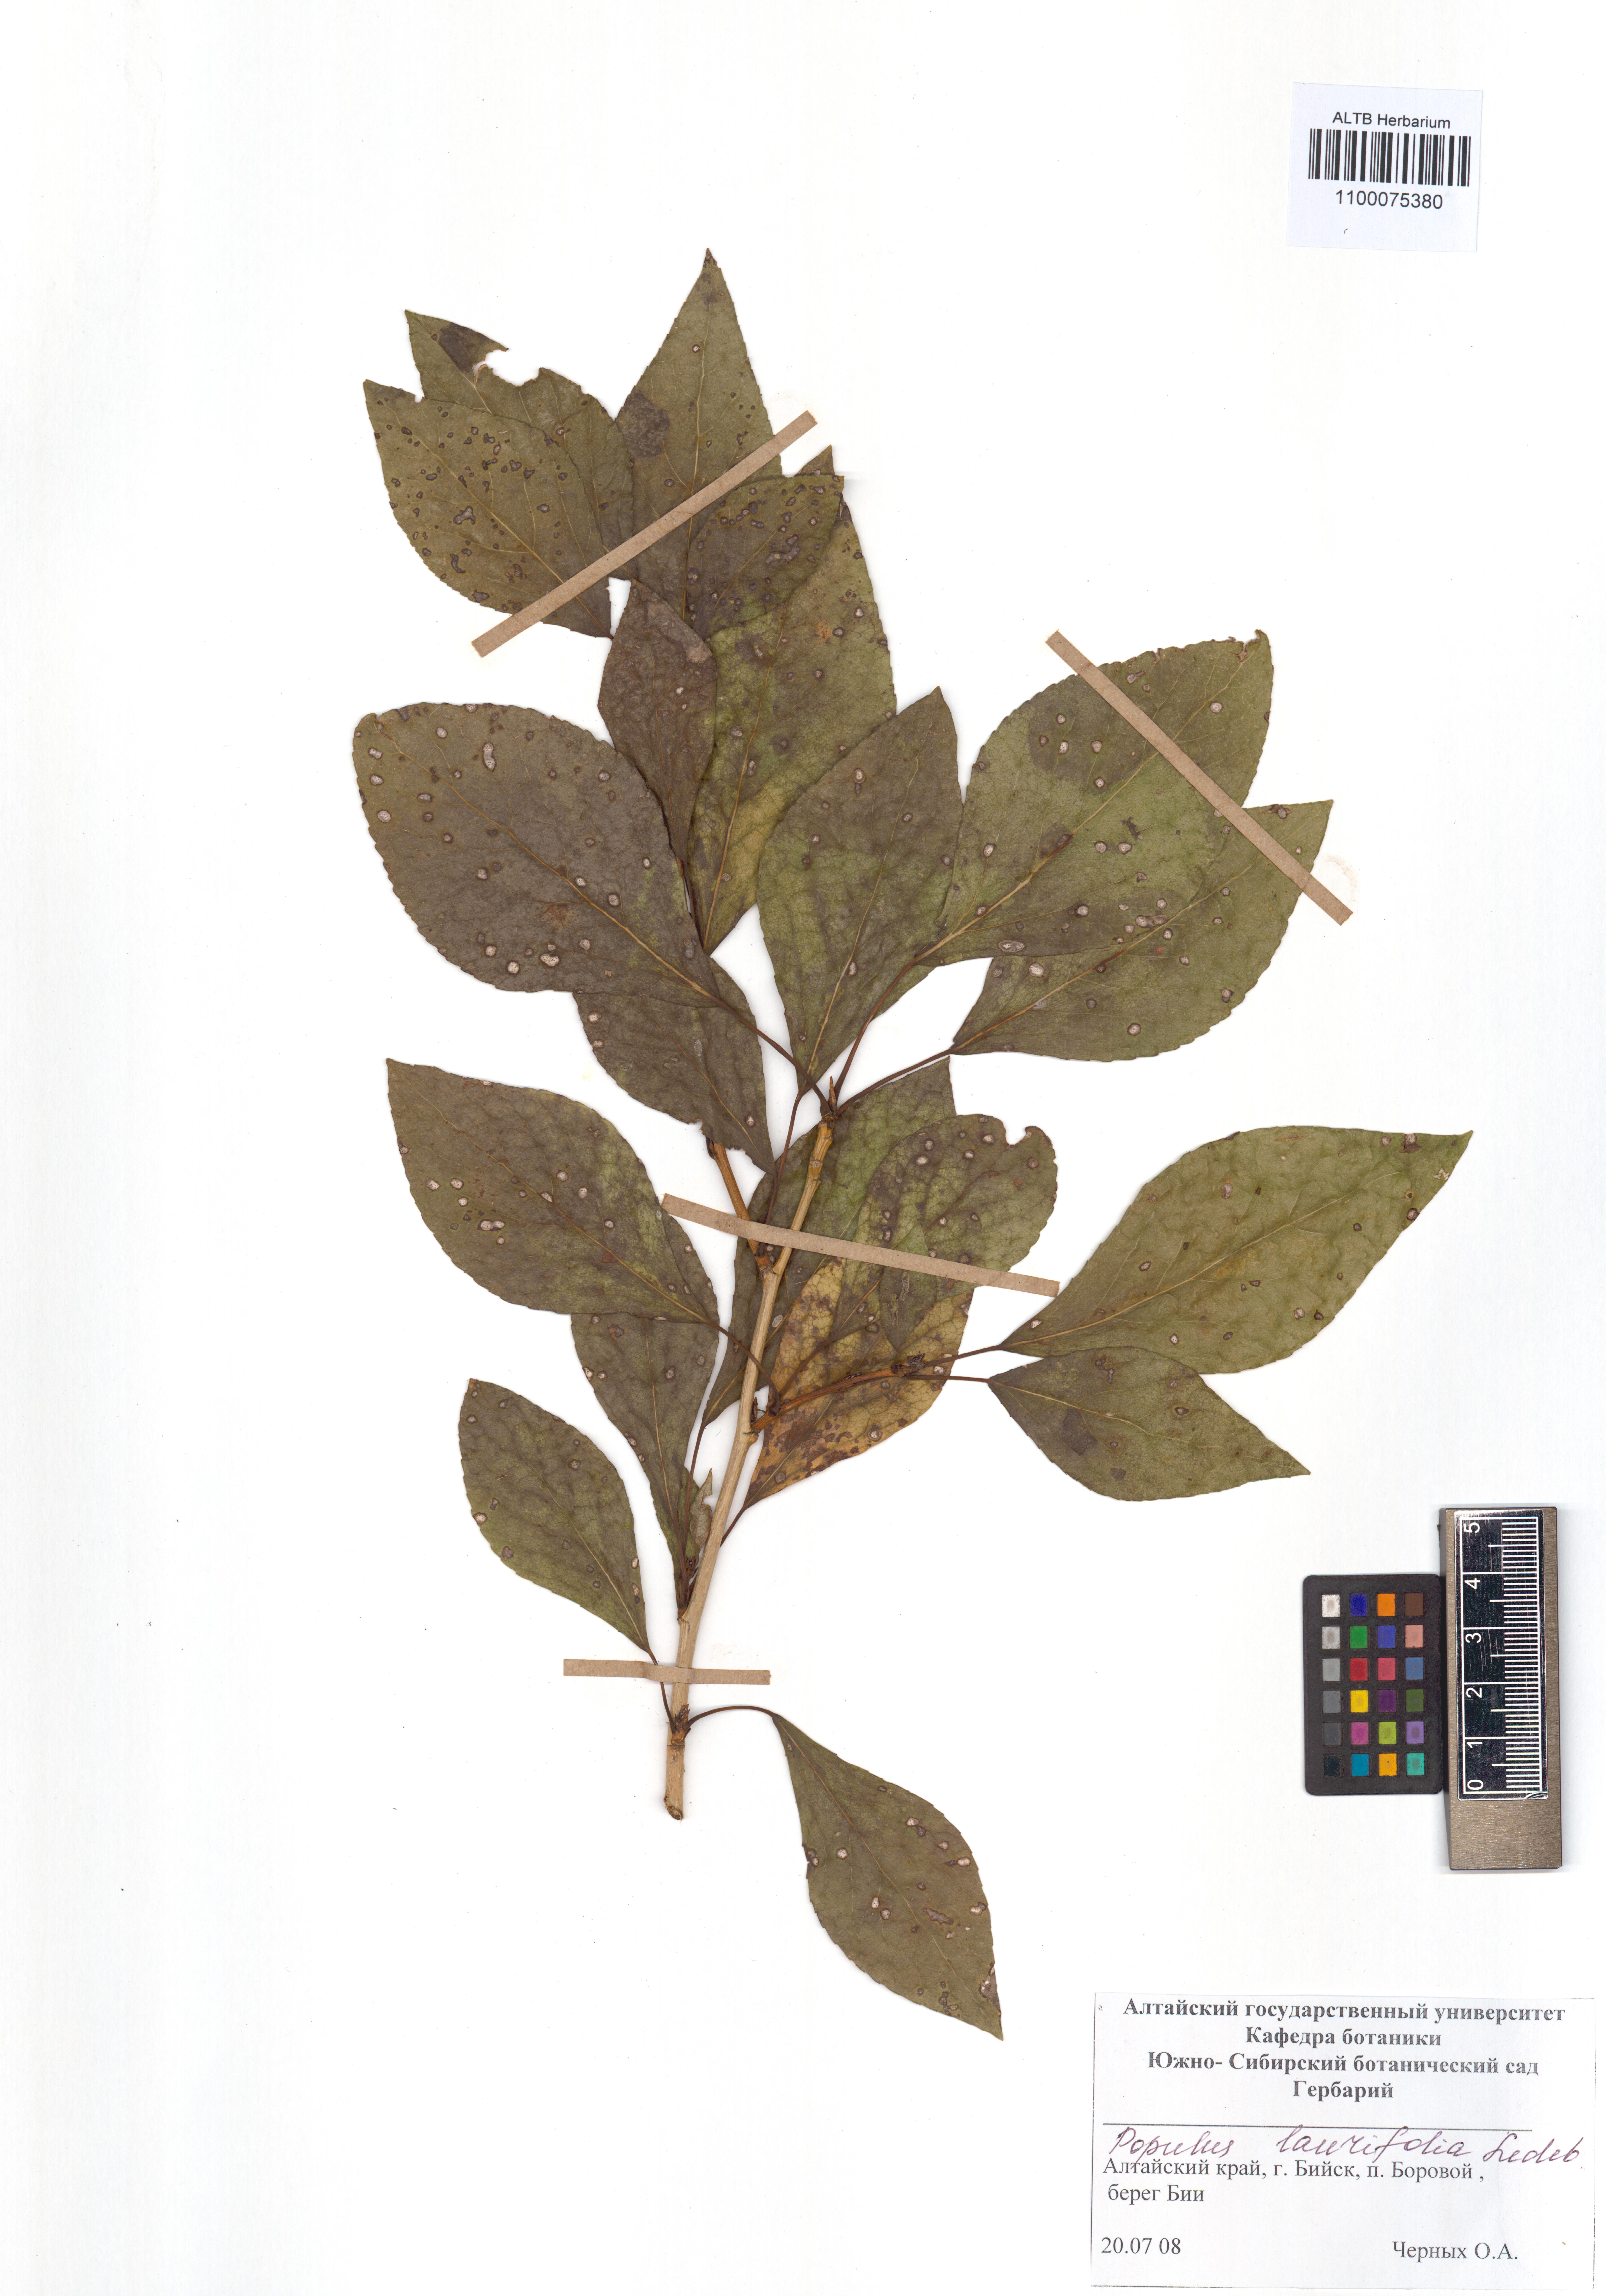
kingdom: Plantae
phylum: Tracheophyta
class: Magnoliopsida
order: Malpighiales
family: Salicaceae
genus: Populus
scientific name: Populus laurifolia
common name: Laurel-leaf poplar
